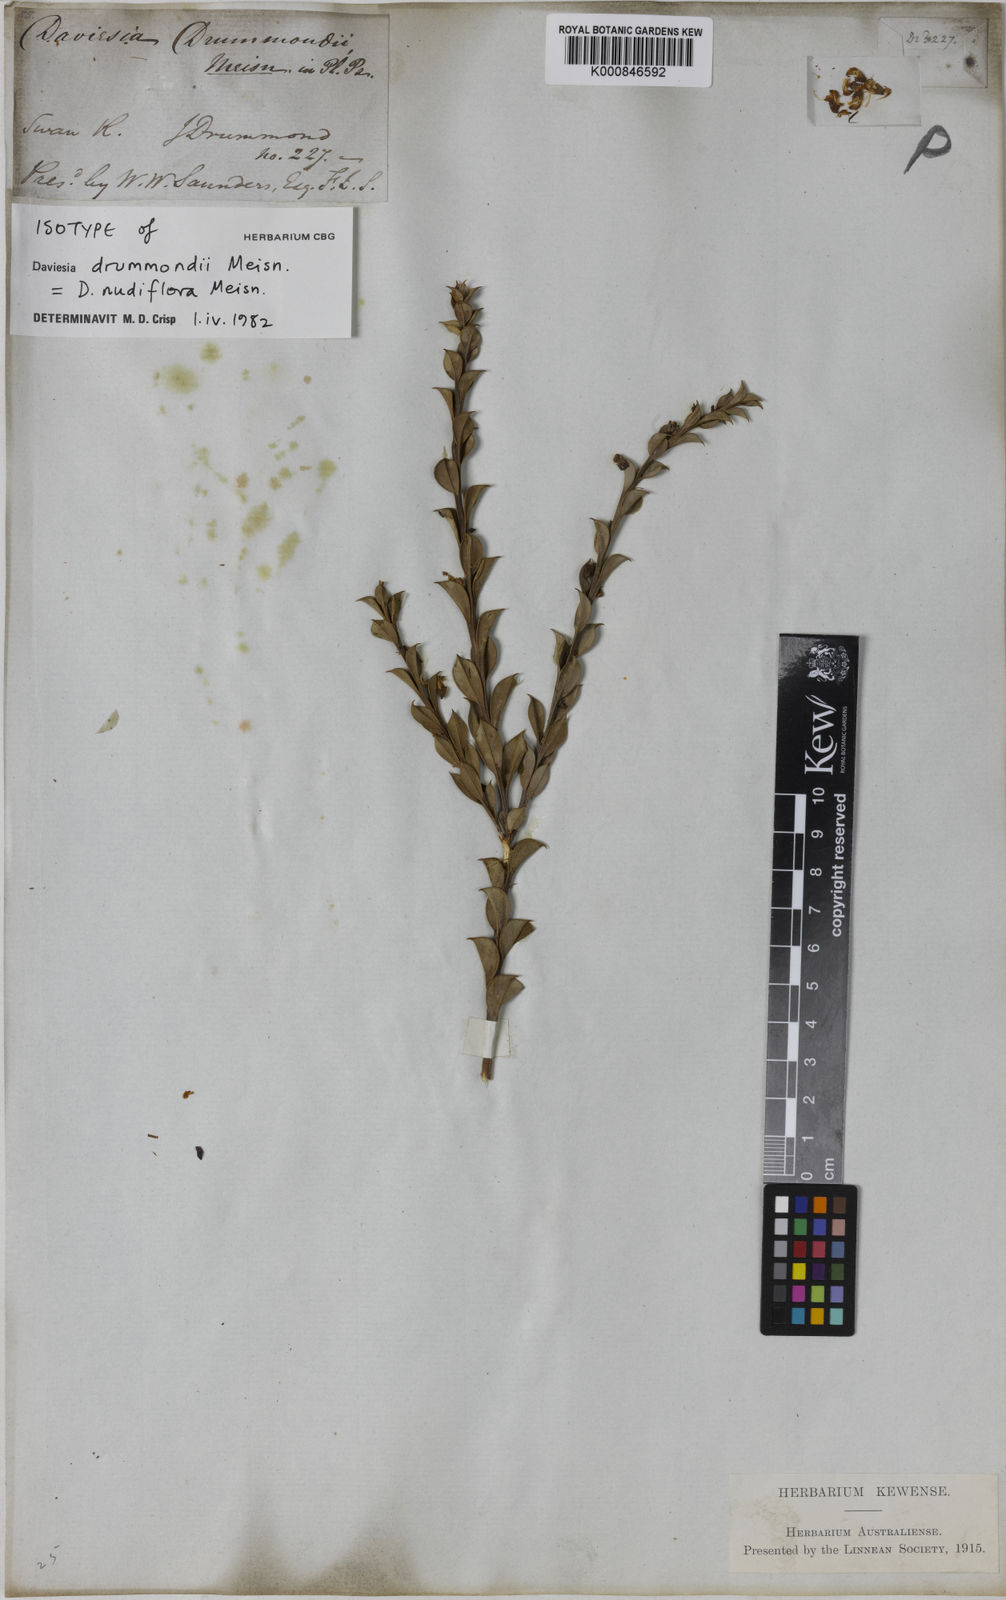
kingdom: Plantae
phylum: Tracheophyta
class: Magnoliopsida
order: Fabales
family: Fabaceae
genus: Daviesia
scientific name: Daviesia nudiflora
